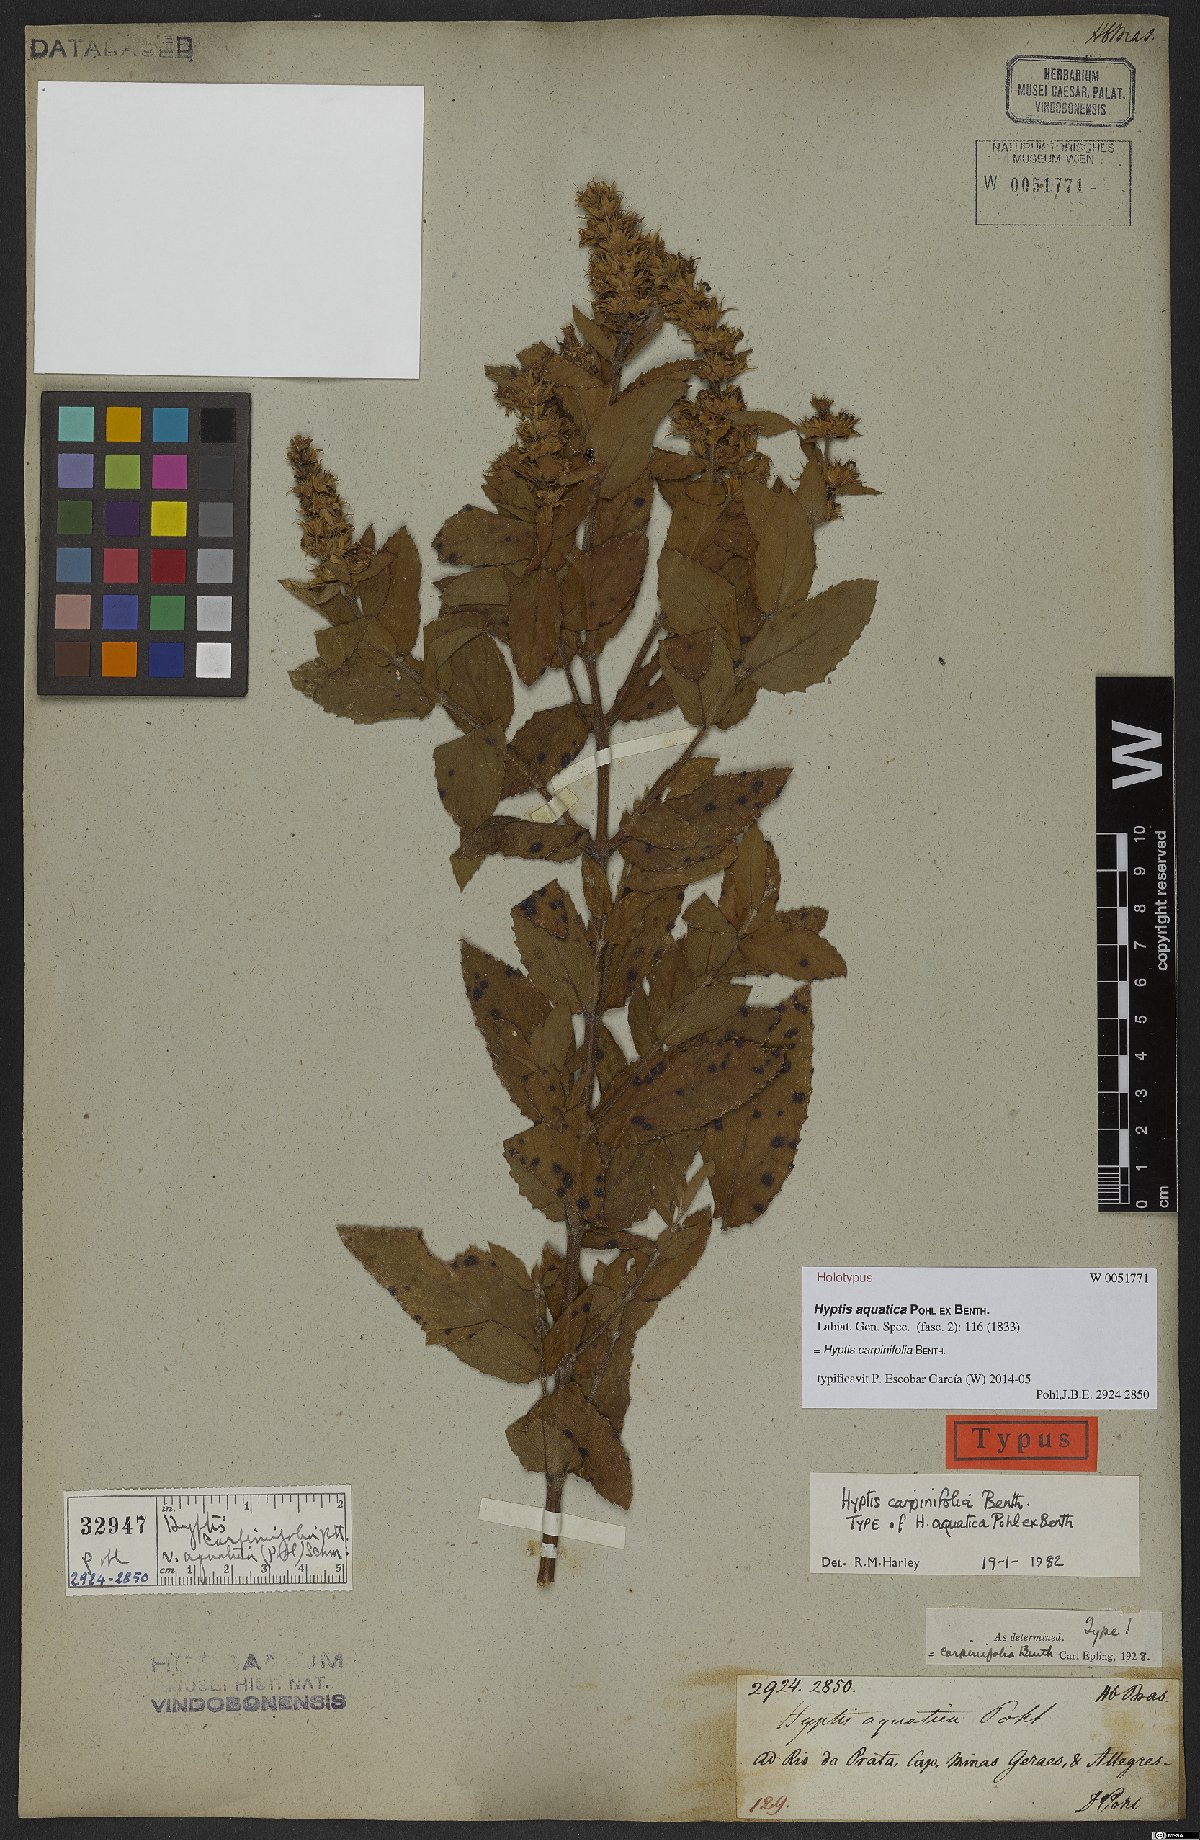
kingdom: Plantae
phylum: Tracheophyta
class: Magnoliopsida
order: Lamiales
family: Lamiaceae
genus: Cantinoa
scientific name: Cantinoa carpinifolia
